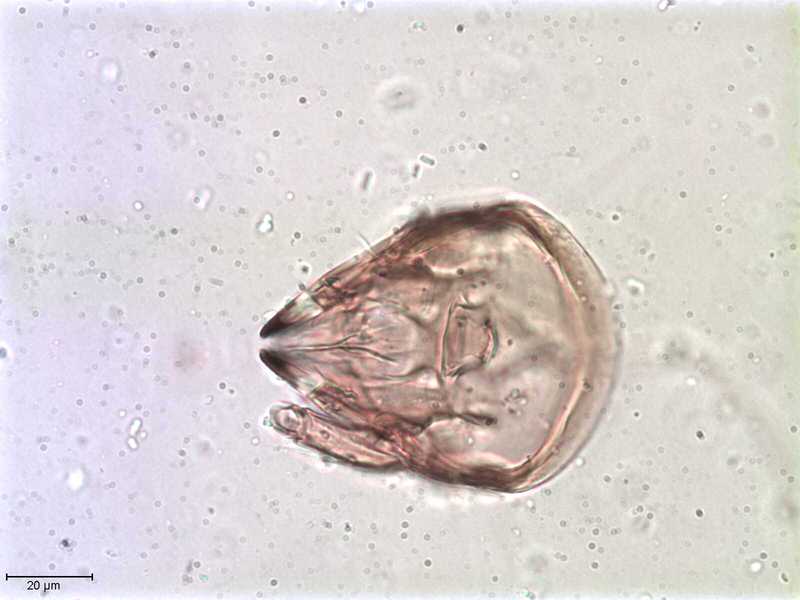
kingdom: Animalia
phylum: Arthropoda
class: Arachnida
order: Sarcoptiformes
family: Galumnidae
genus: Allogalumna
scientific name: Allogalumna exigua
